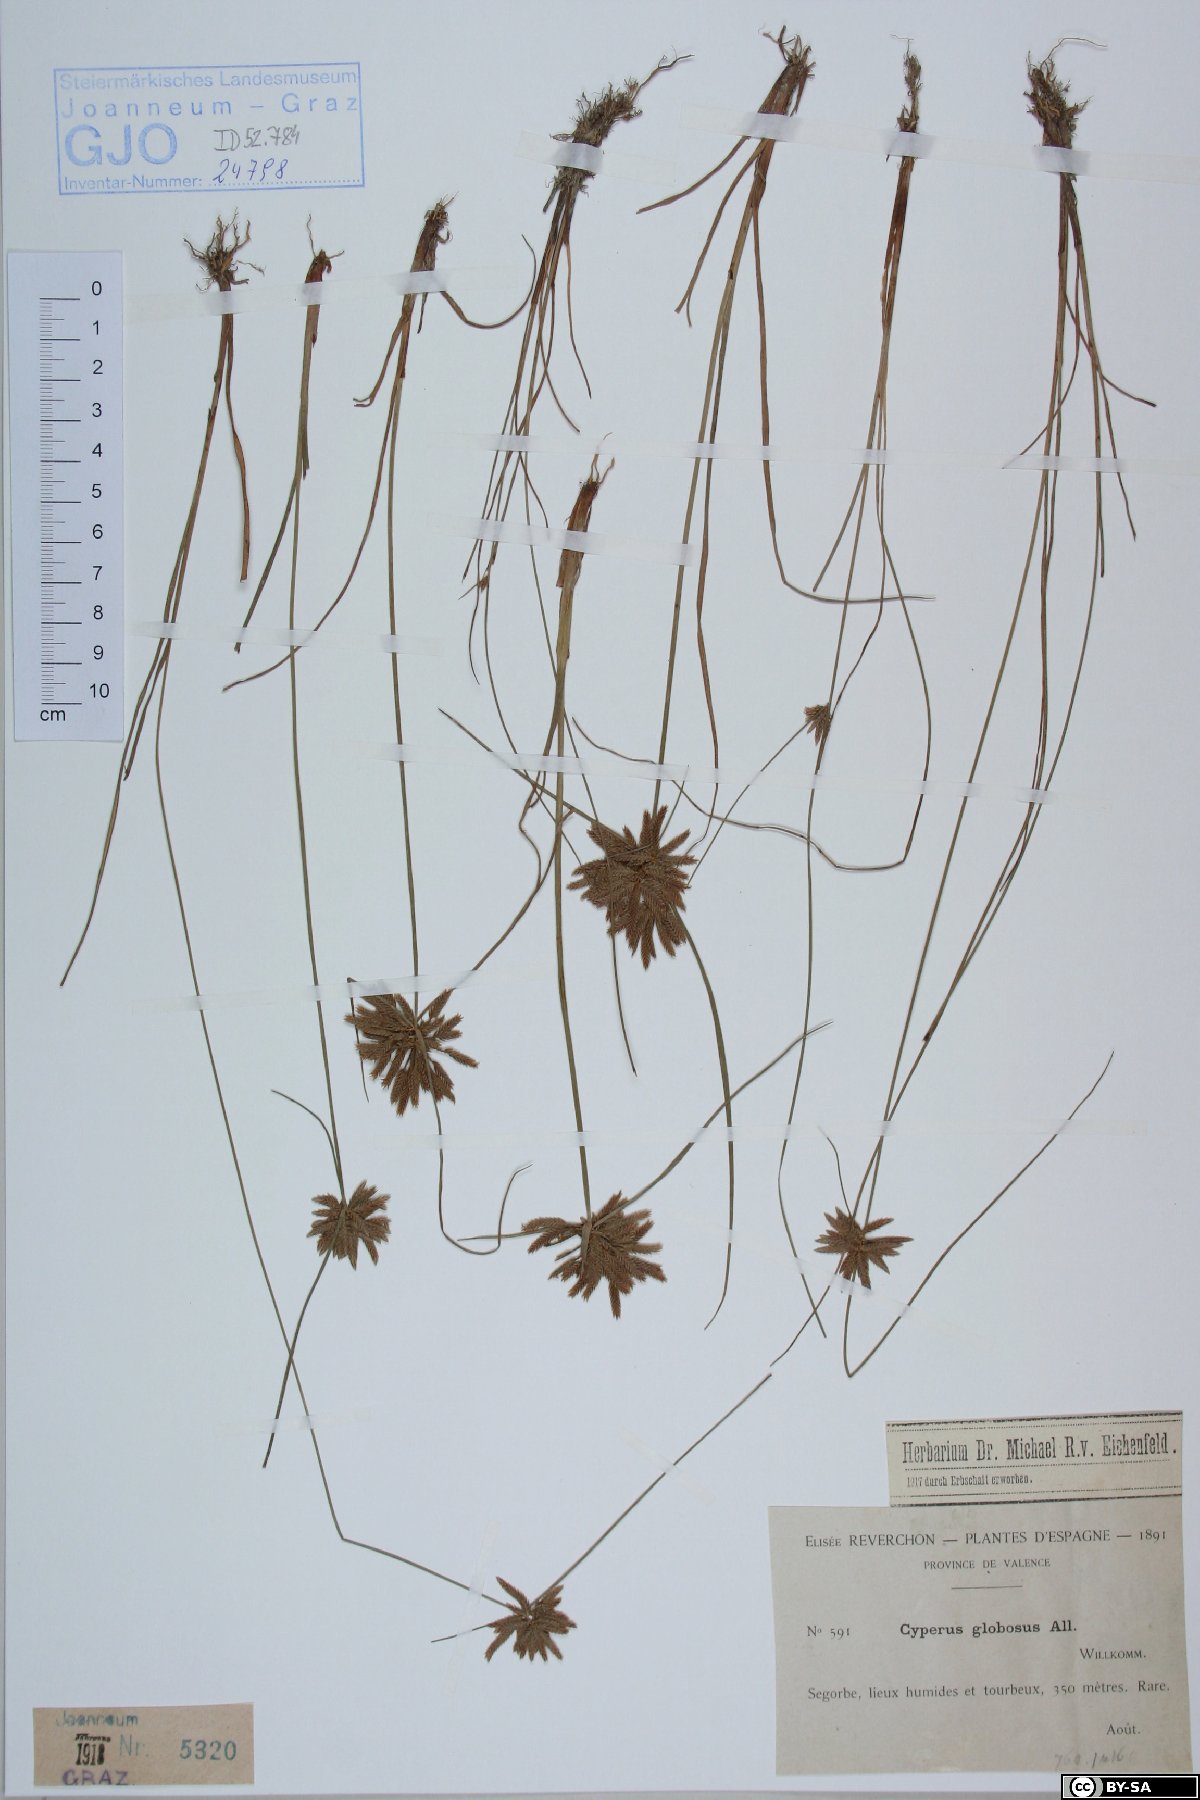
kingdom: Plantae
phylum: Tracheophyta
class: Liliopsida
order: Poales
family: Cyperaceae
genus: Cyperus
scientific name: Cyperus flavidus
